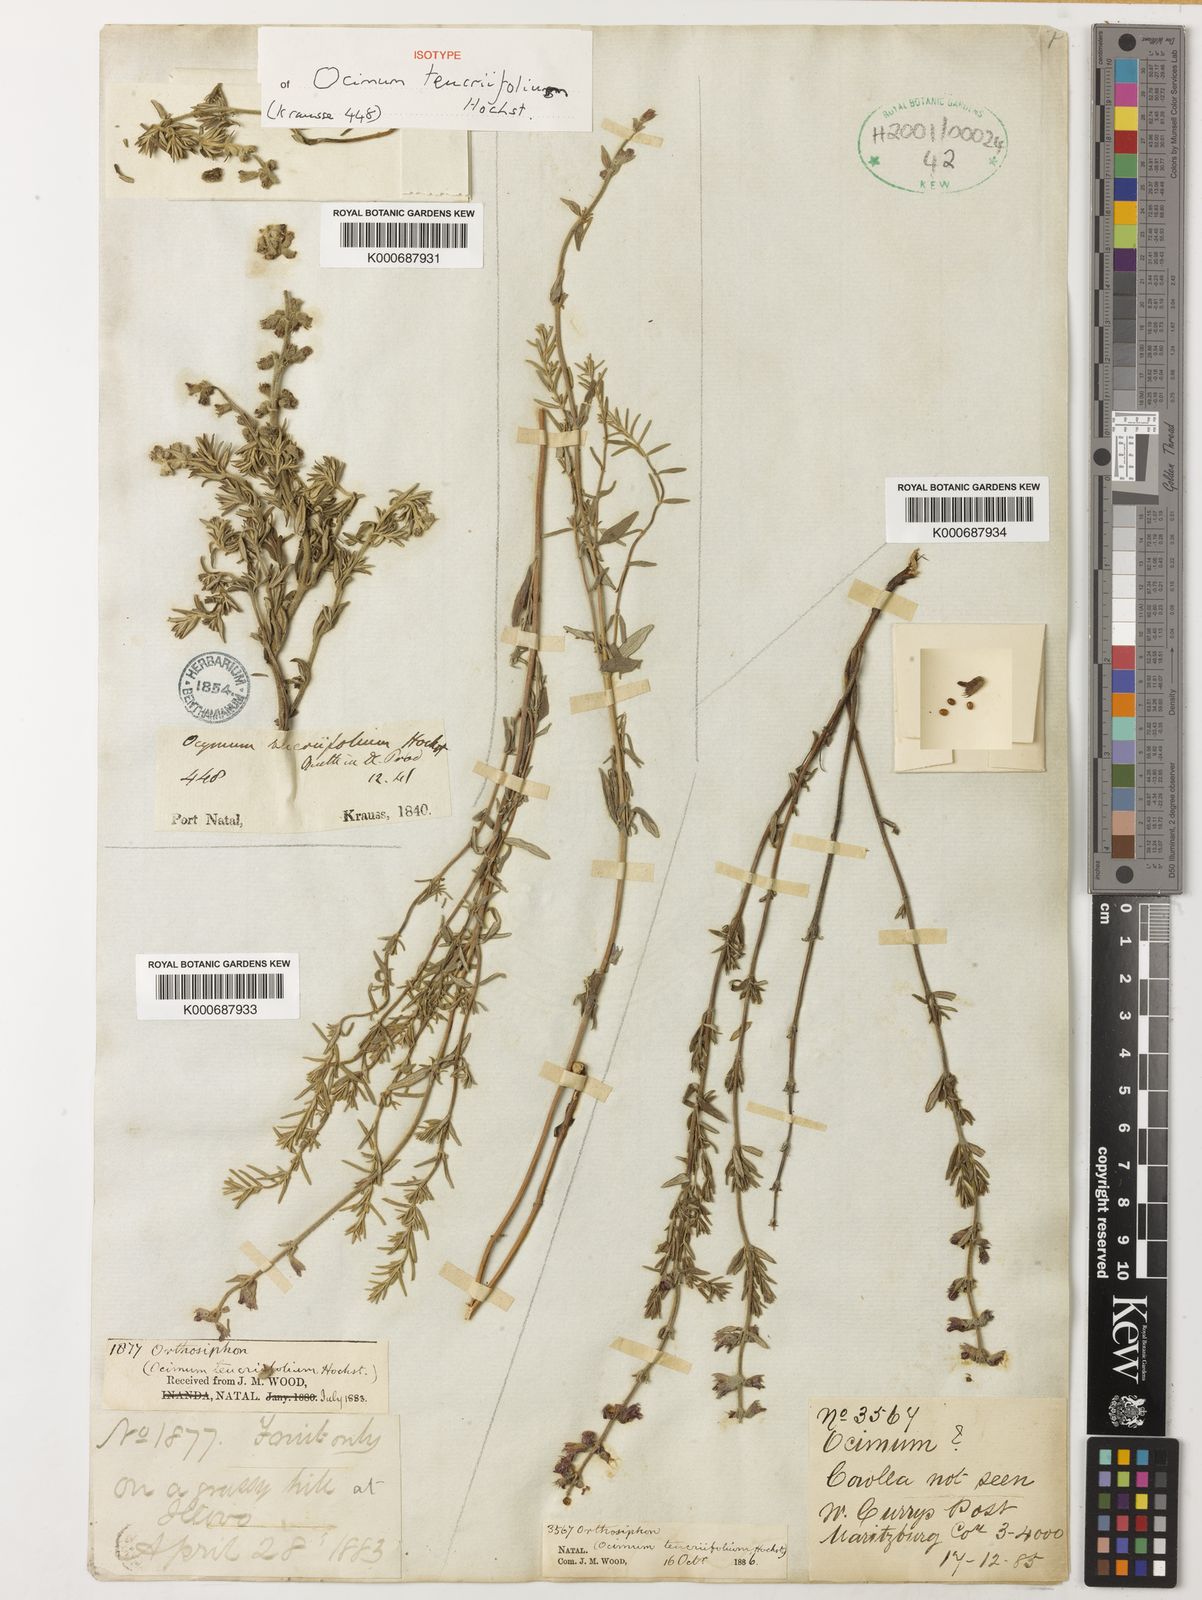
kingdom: Plantae
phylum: Tracheophyta
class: Magnoliopsida
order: Lamiales
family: Lamiaceae
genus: Syncolostemon
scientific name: Syncolostemon teucriifolius
